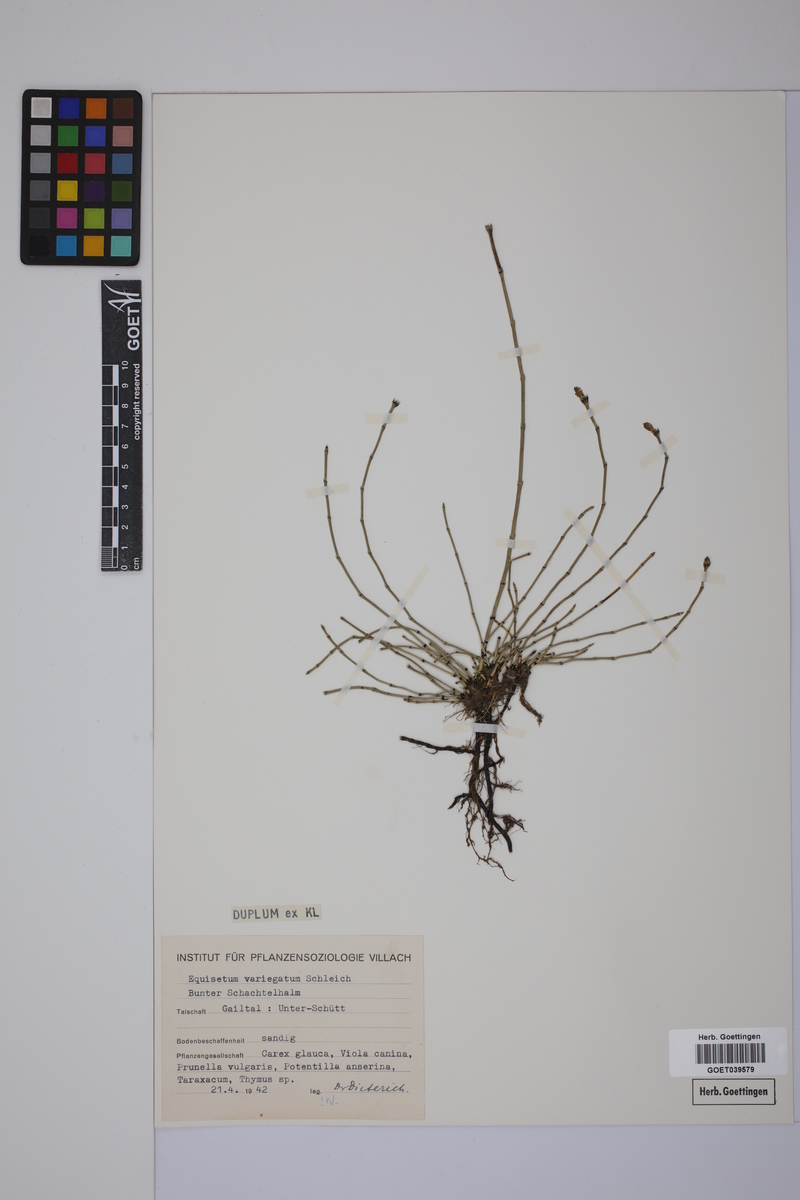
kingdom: Plantae
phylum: Tracheophyta
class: Polypodiopsida
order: Equisetales
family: Equisetaceae
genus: Equisetum
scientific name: Equisetum variegatum
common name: Variegated horsetail
